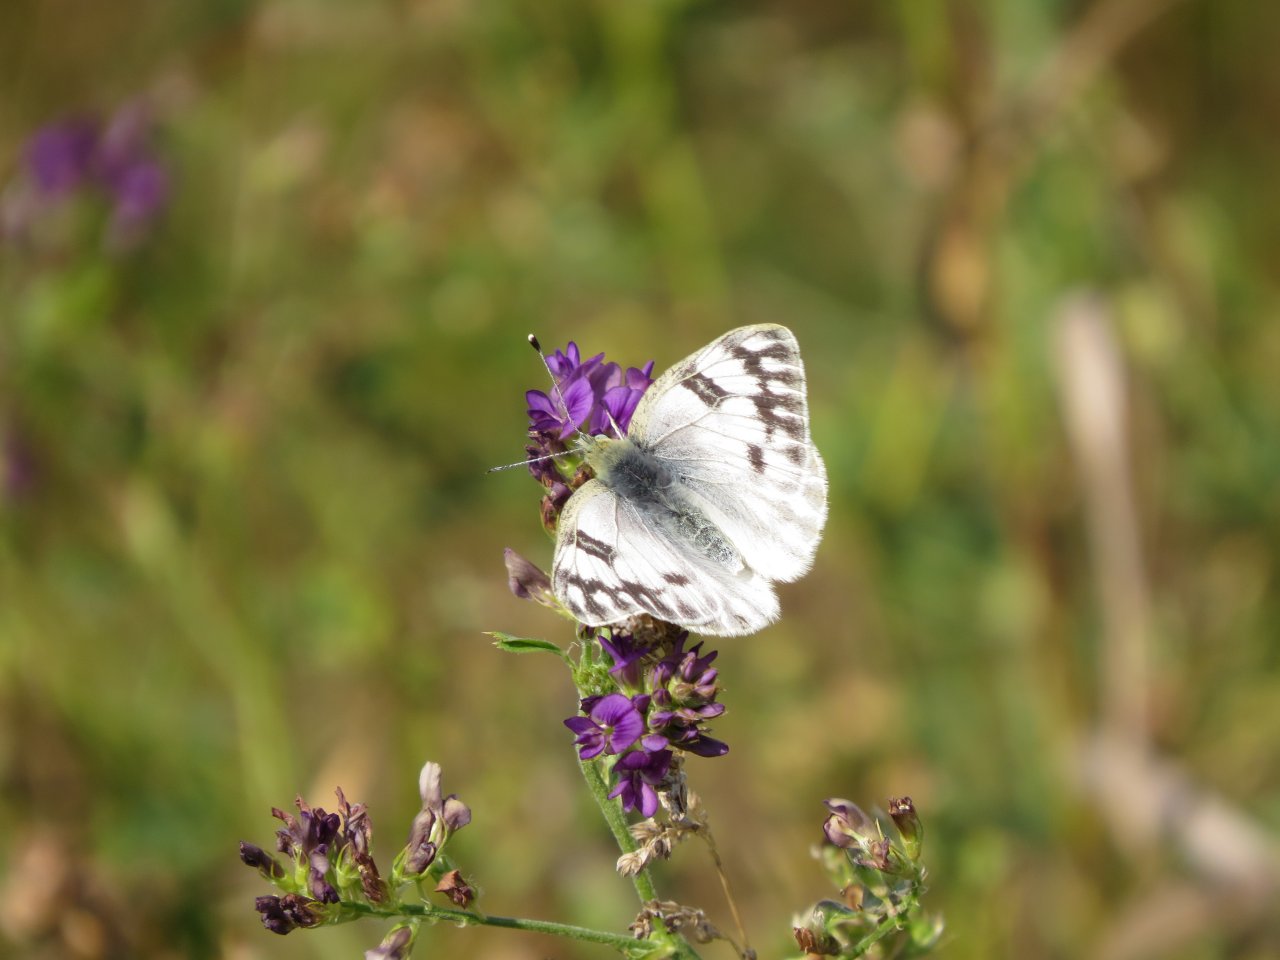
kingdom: Animalia
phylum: Arthropoda
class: Insecta
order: Lepidoptera
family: Pieridae
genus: Pontia
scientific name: Pontia occidentalis
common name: Western White
